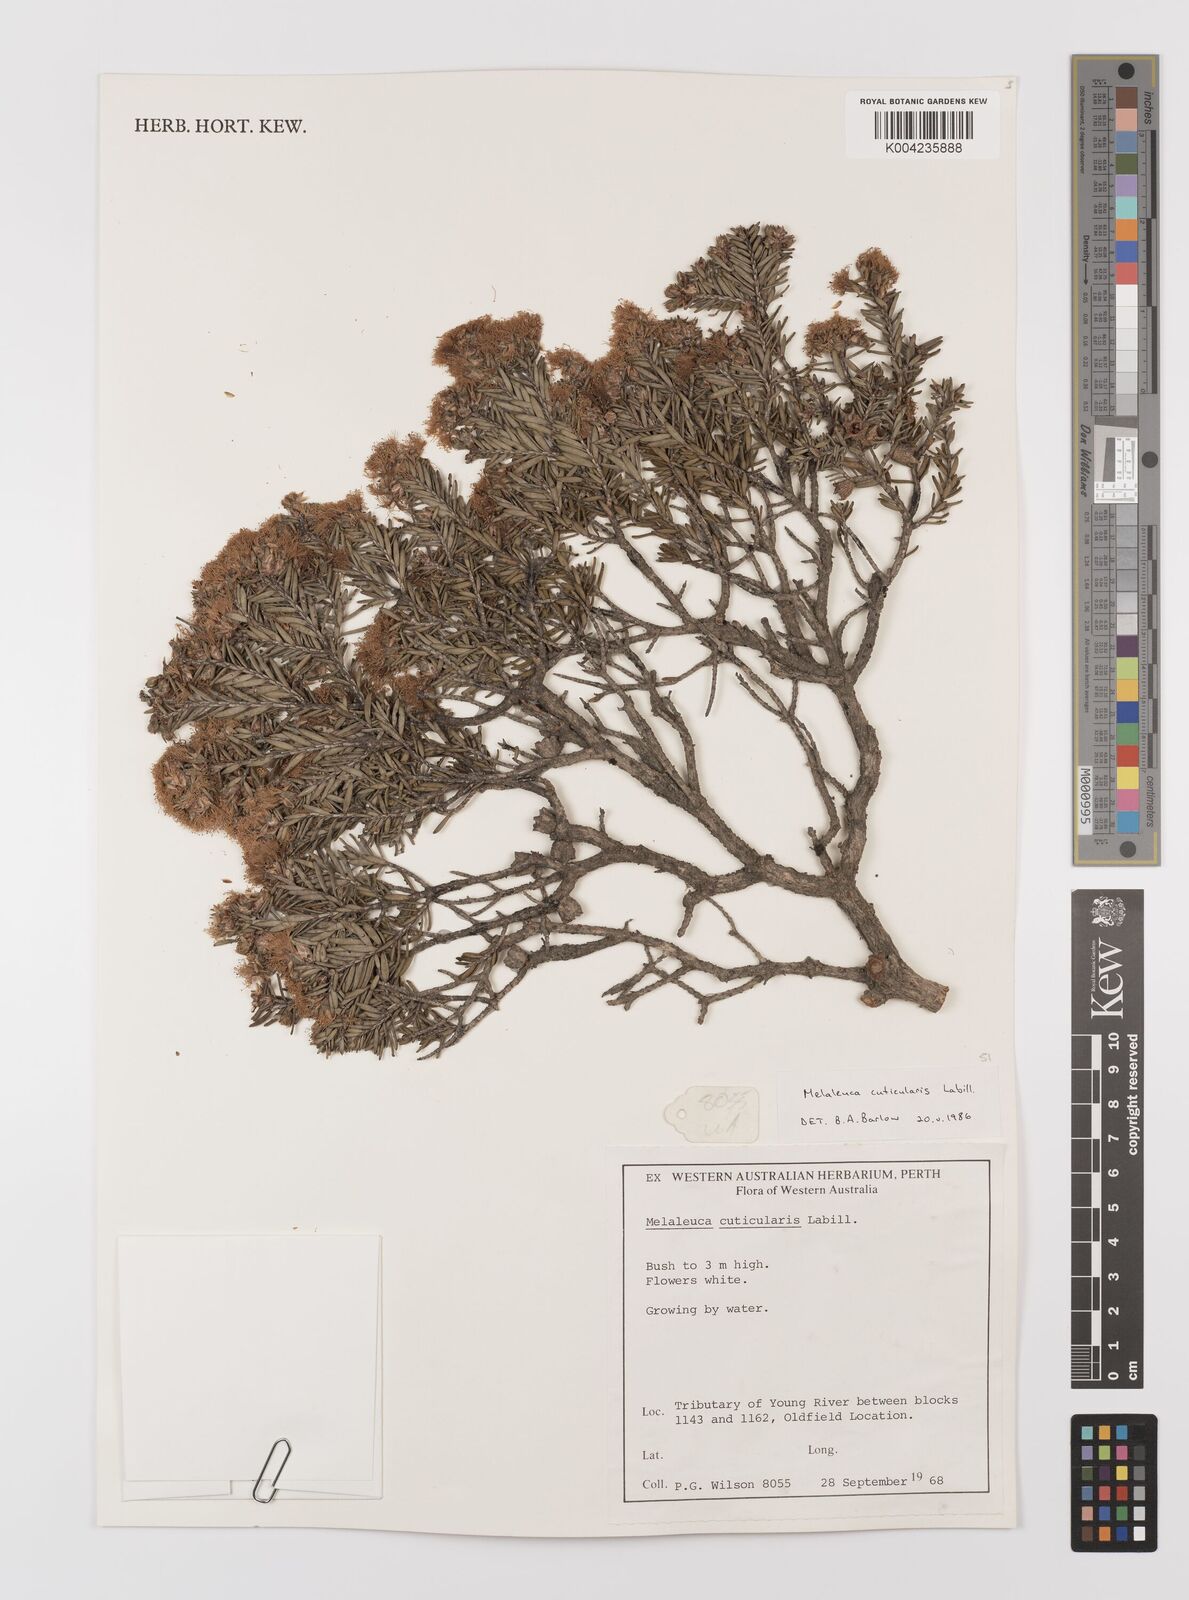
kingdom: Plantae
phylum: Tracheophyta
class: Magnoliopsida
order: Myrtales
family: Myrtaceae
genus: Melaleuca
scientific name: Melaleuca cuticularis
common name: Saltwater paperbark
